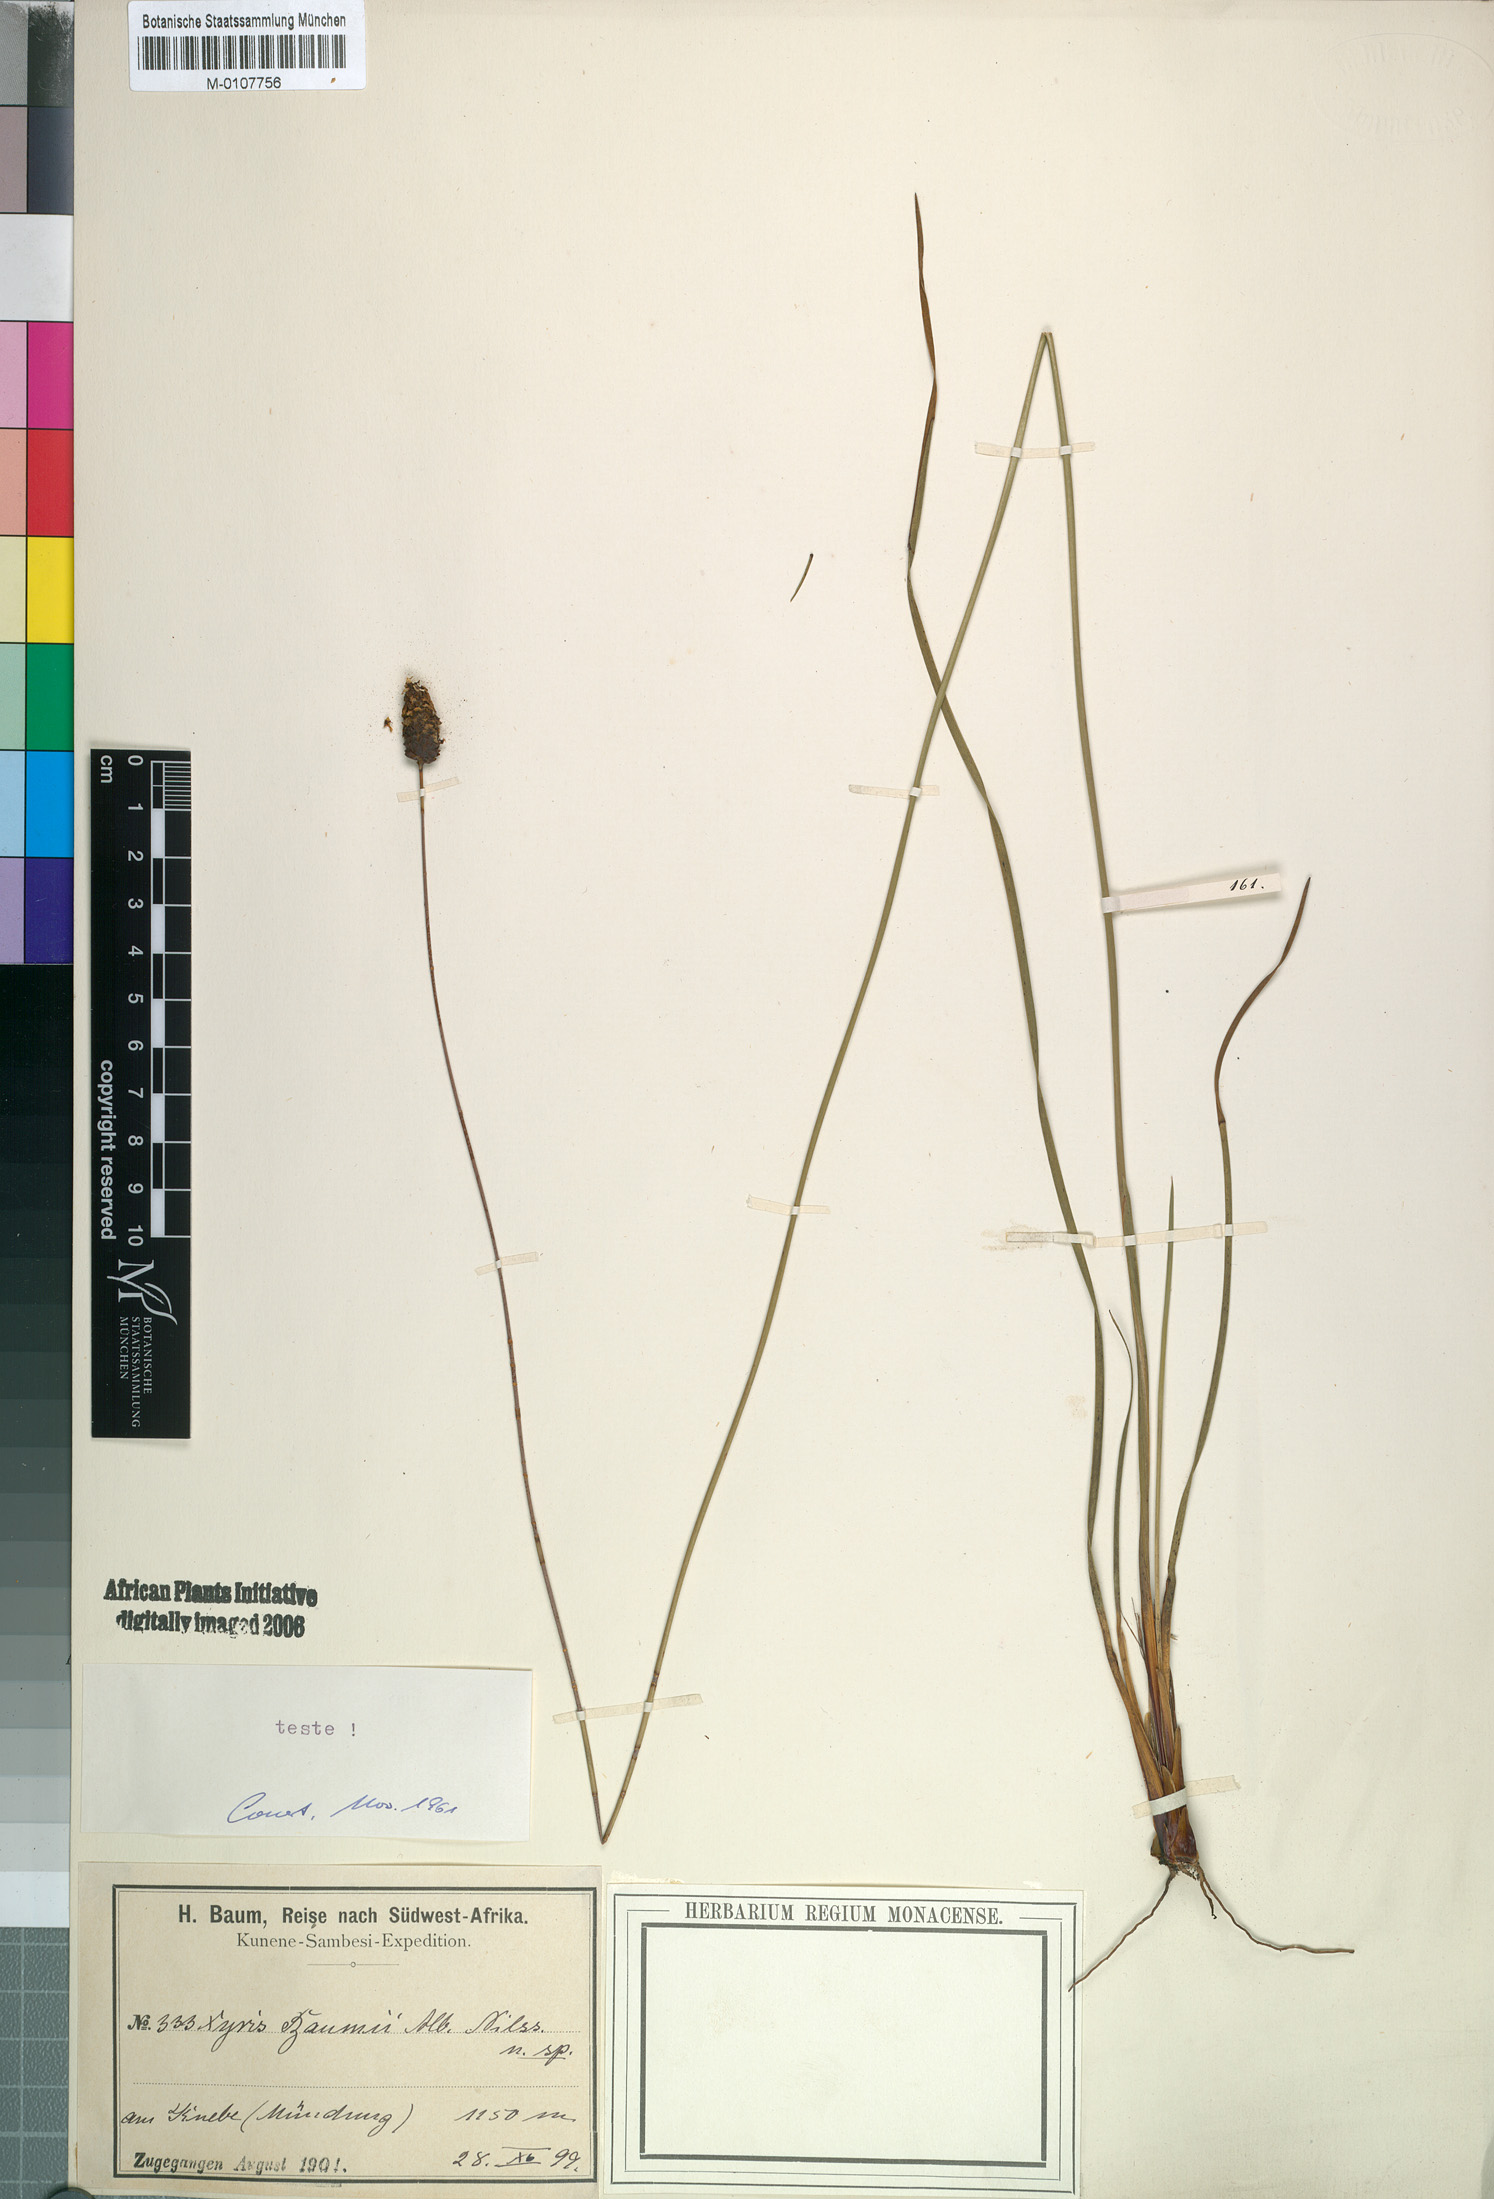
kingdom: Plantae
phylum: Tracheophyta
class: Liliopsida
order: Poales
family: Xyridaceae
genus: Xyris
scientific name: Xyris congensis
